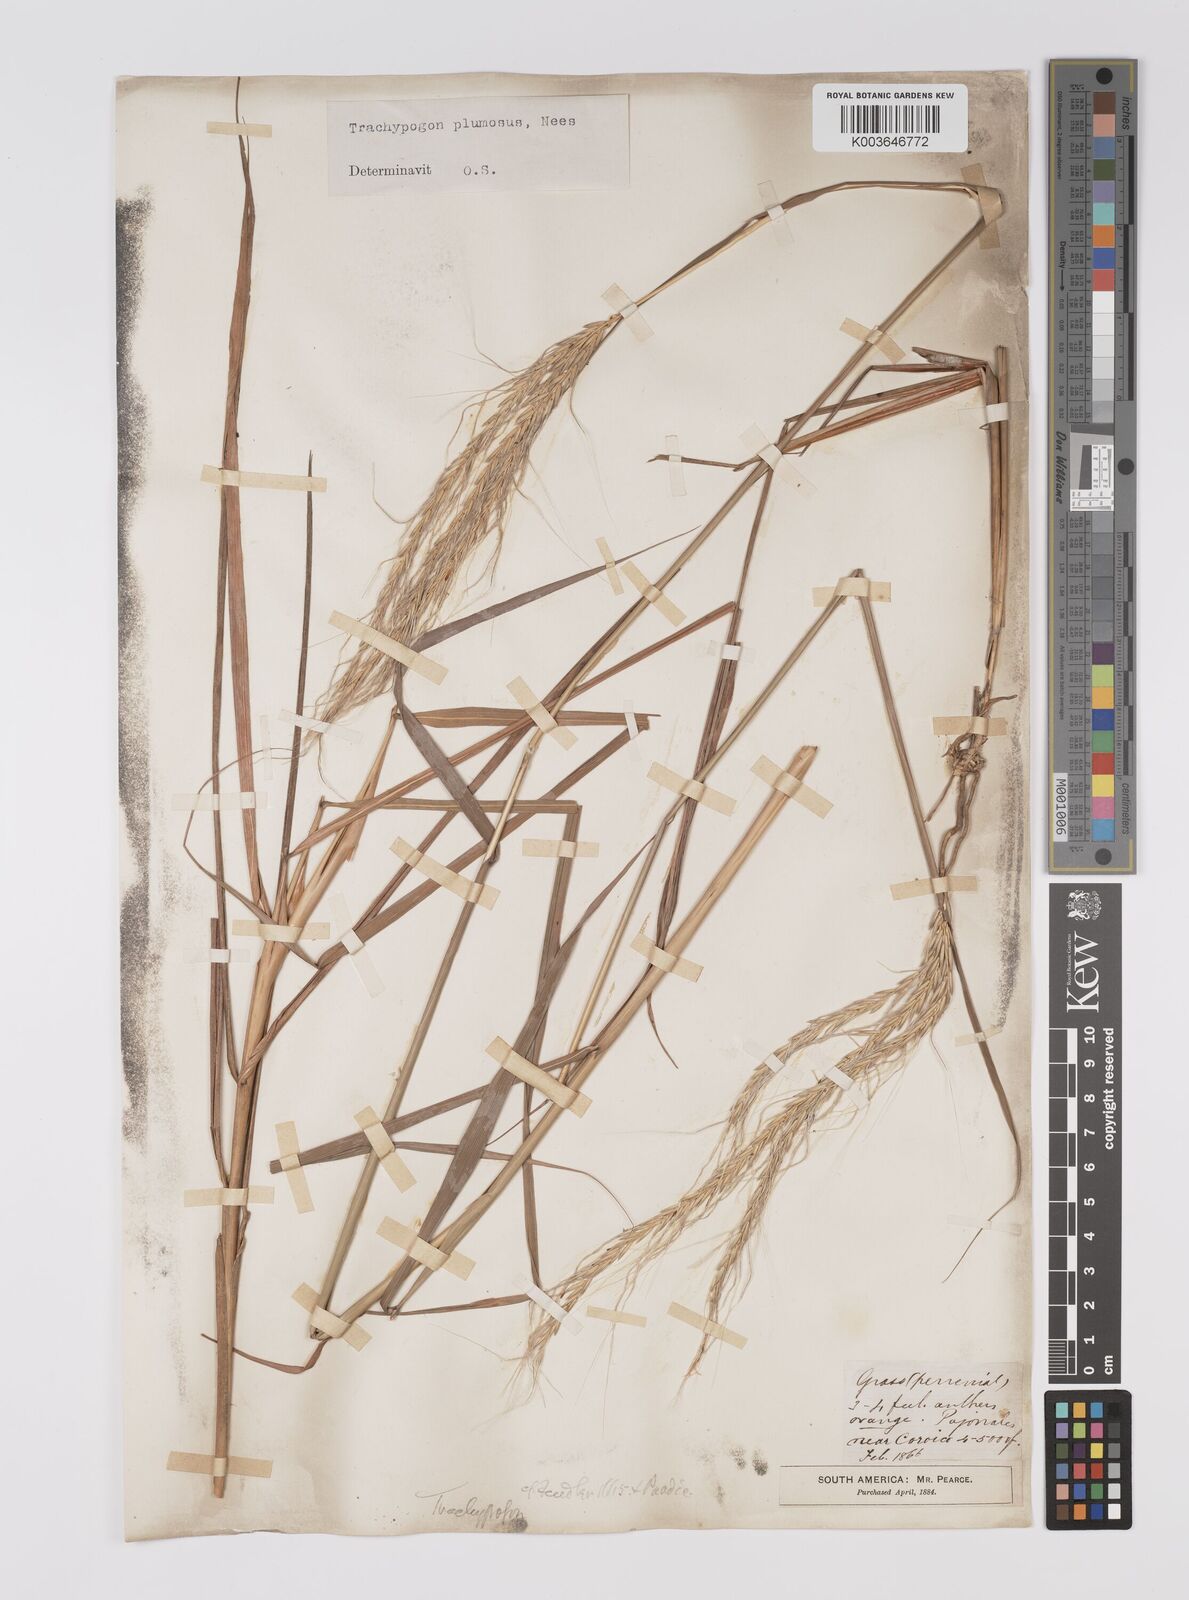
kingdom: Plantae
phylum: Tracheophyta
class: Liliopsida
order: Poales
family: Poaceae
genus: Trachypogon
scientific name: Trachypogon spicatus
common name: Crinkle-awn
